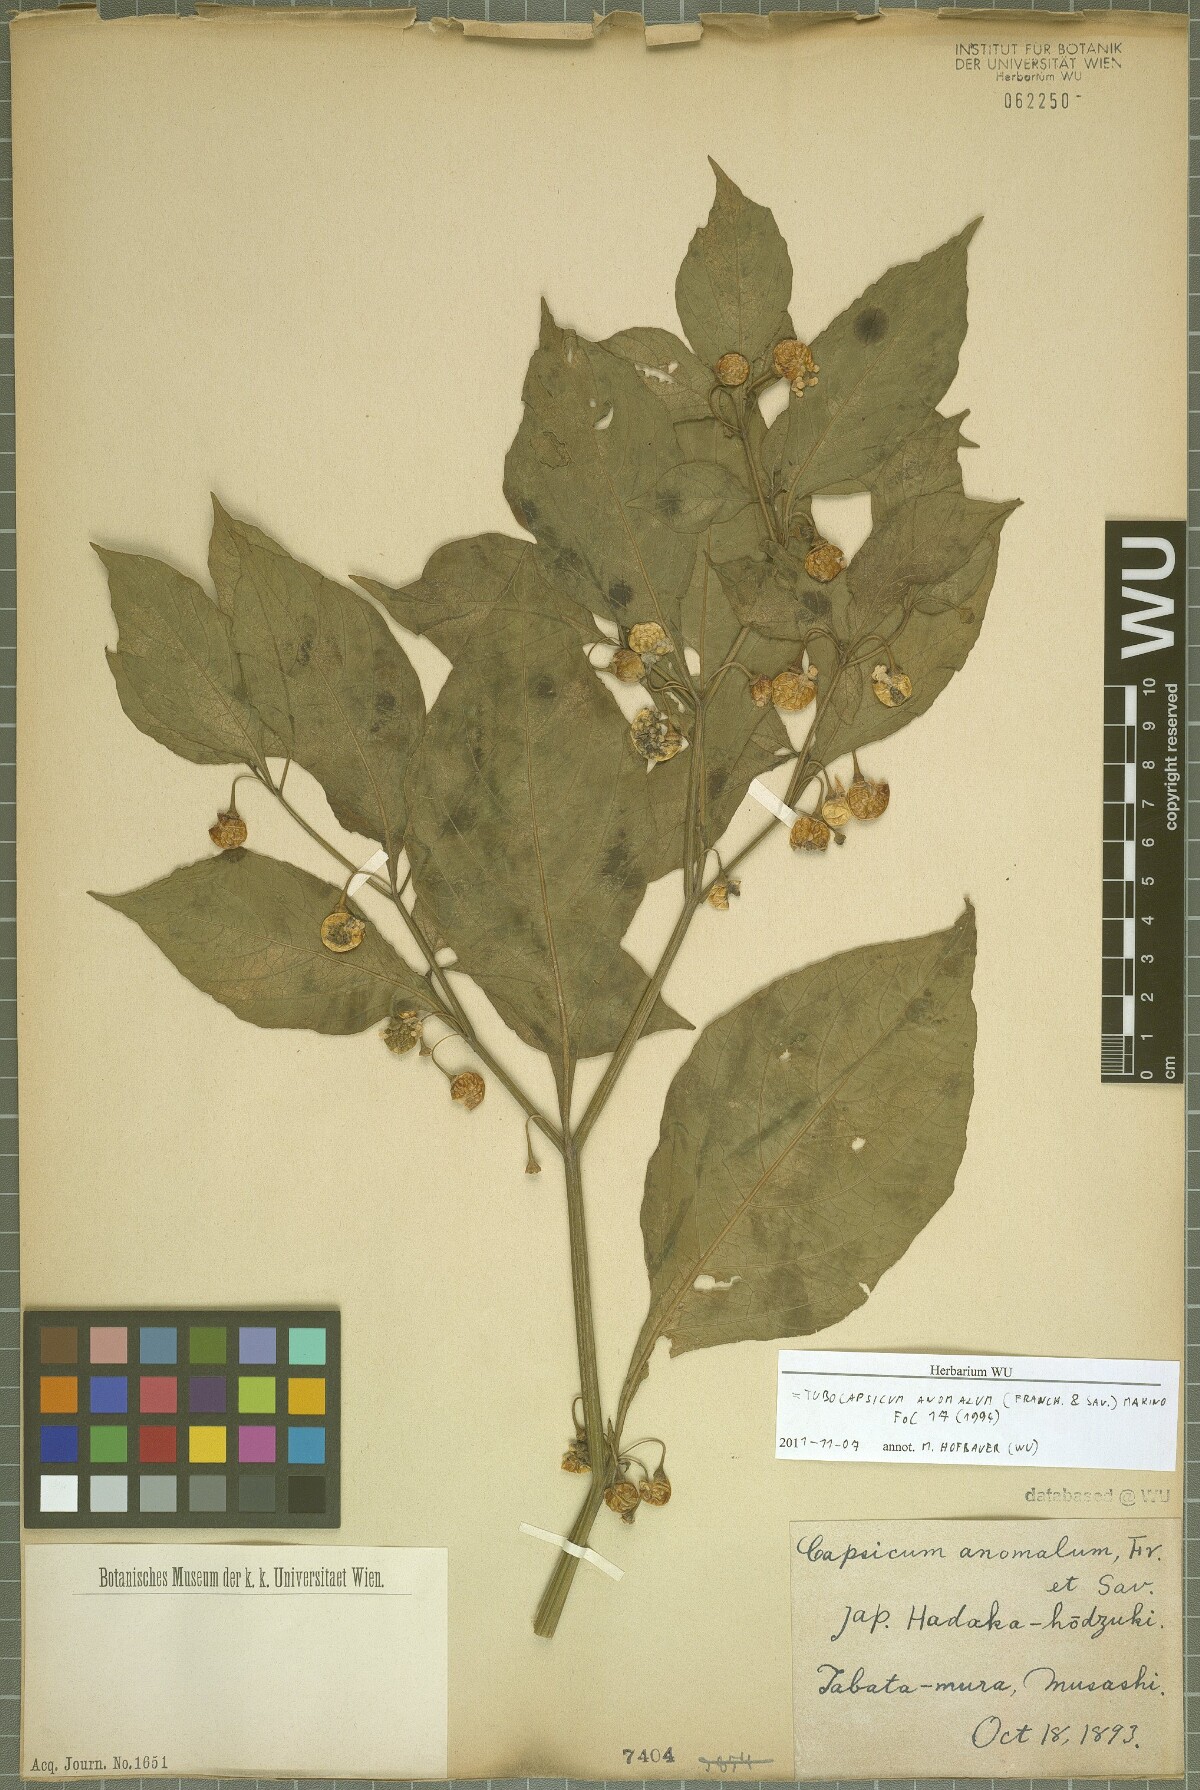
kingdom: Plantae
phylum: Tracheophyta
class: Magnoliopsida
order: Solanales
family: Solanaceae
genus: Tubocapsicum
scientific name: Tubocapsicum anomalum
